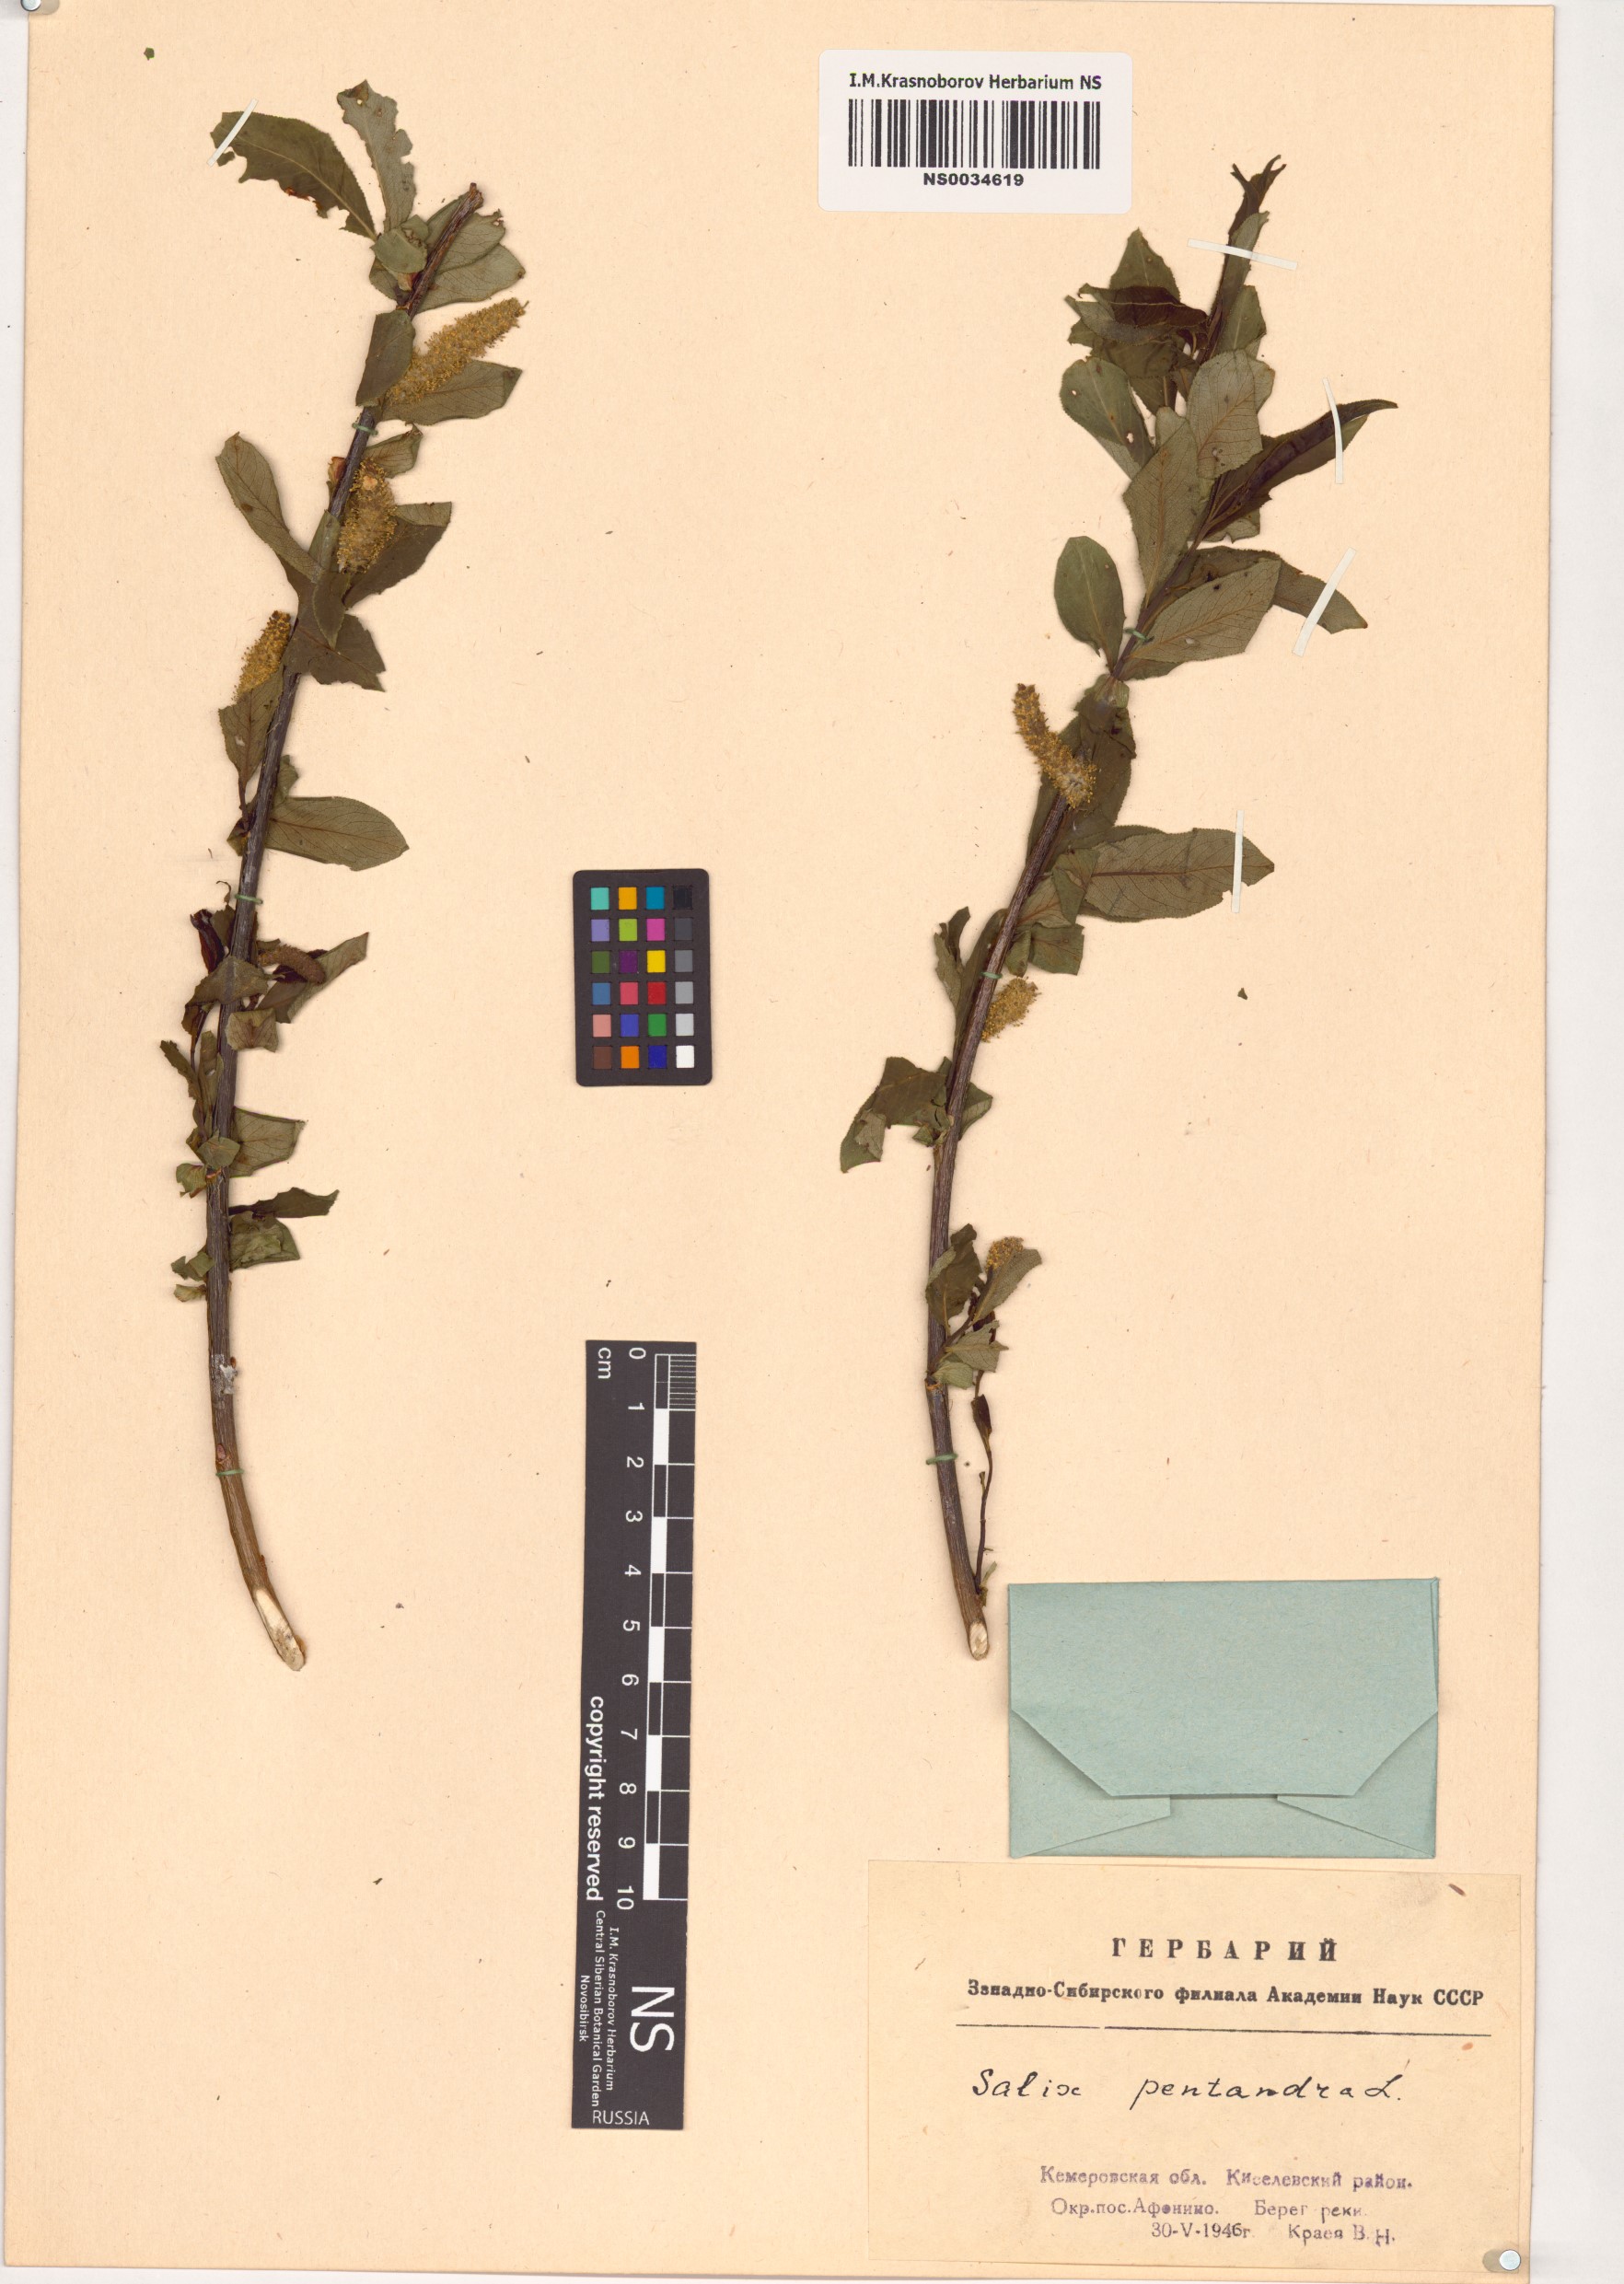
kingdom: Plantae
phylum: Tracheophyta
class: Magnoliopsida
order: Malpighiales
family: Salicaceae
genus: Salix
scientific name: Salix pentandra
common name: Bay willow
